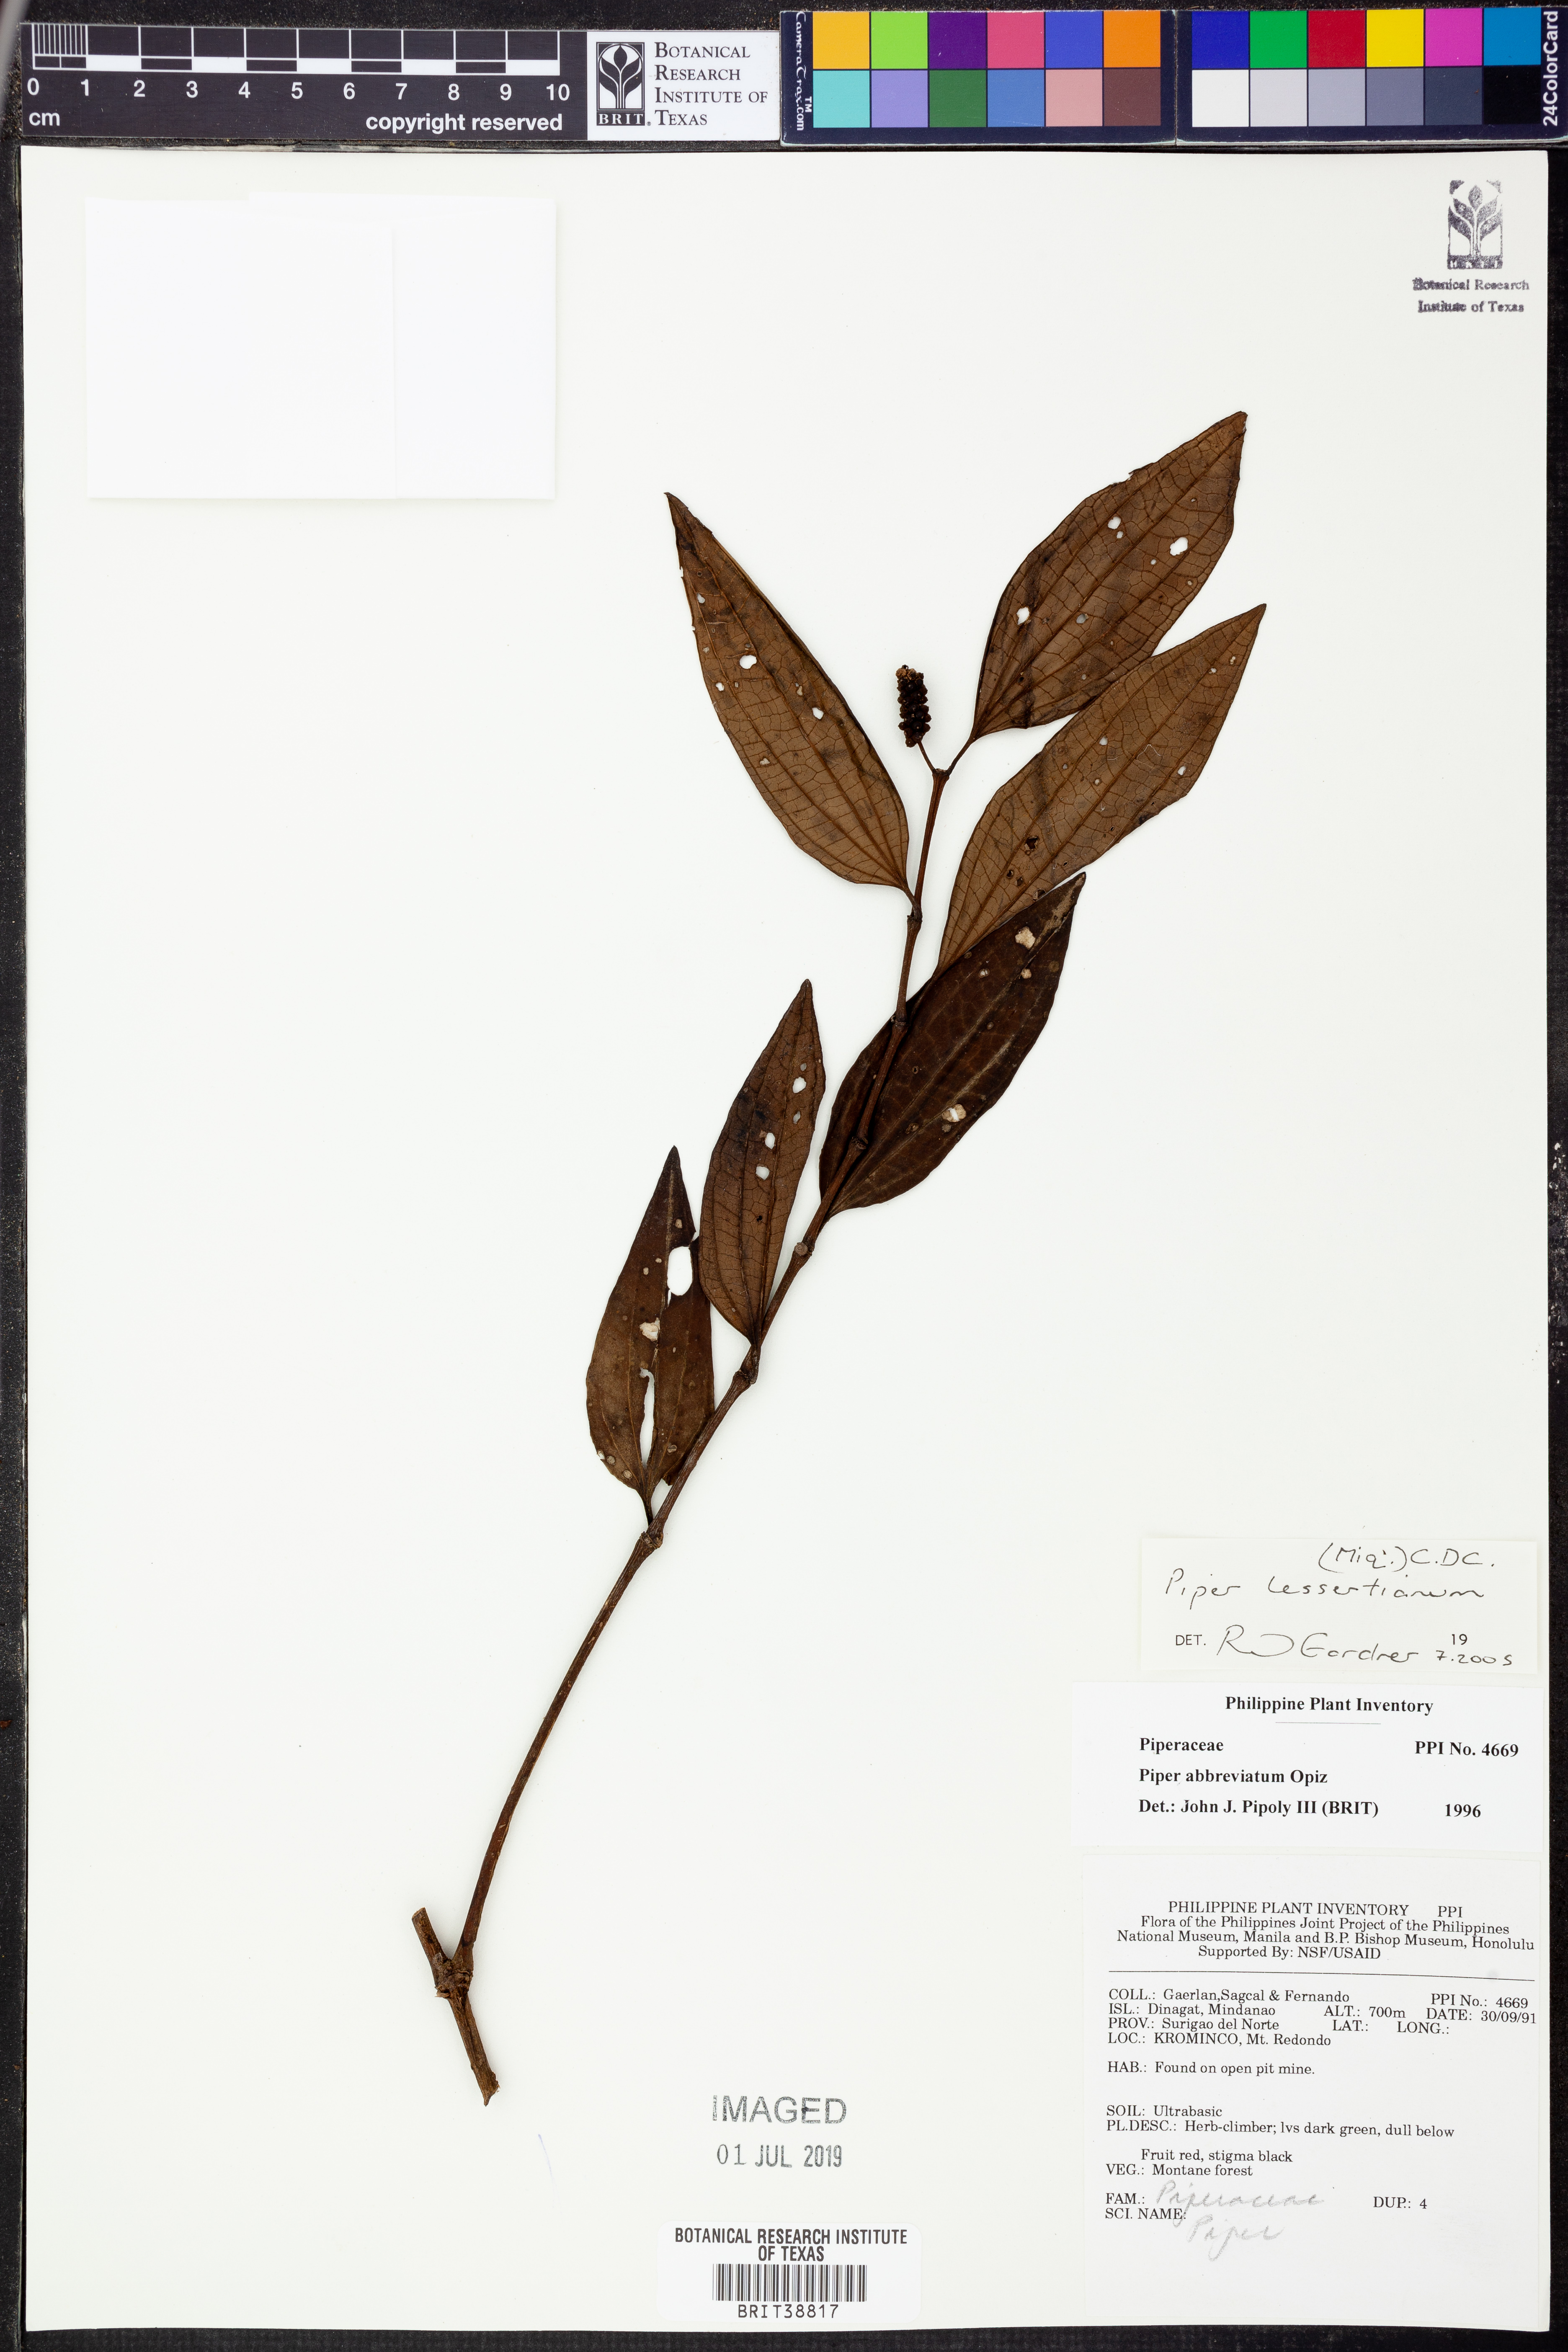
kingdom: Plantae
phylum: Tracheophyta
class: Magnoliopsida
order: Piperales
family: Piperaceae
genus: Piper
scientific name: Piper lessertianum
